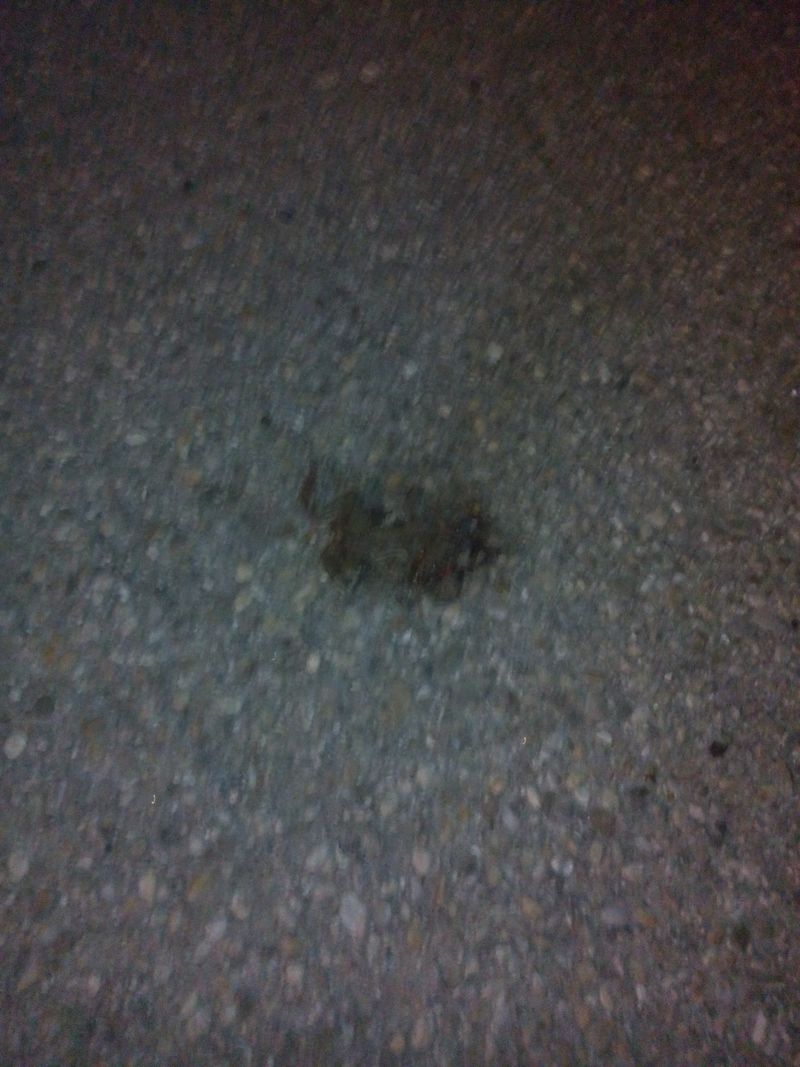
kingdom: Animalia
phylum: Chordata
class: Amphibia
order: Anura
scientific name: Anura
